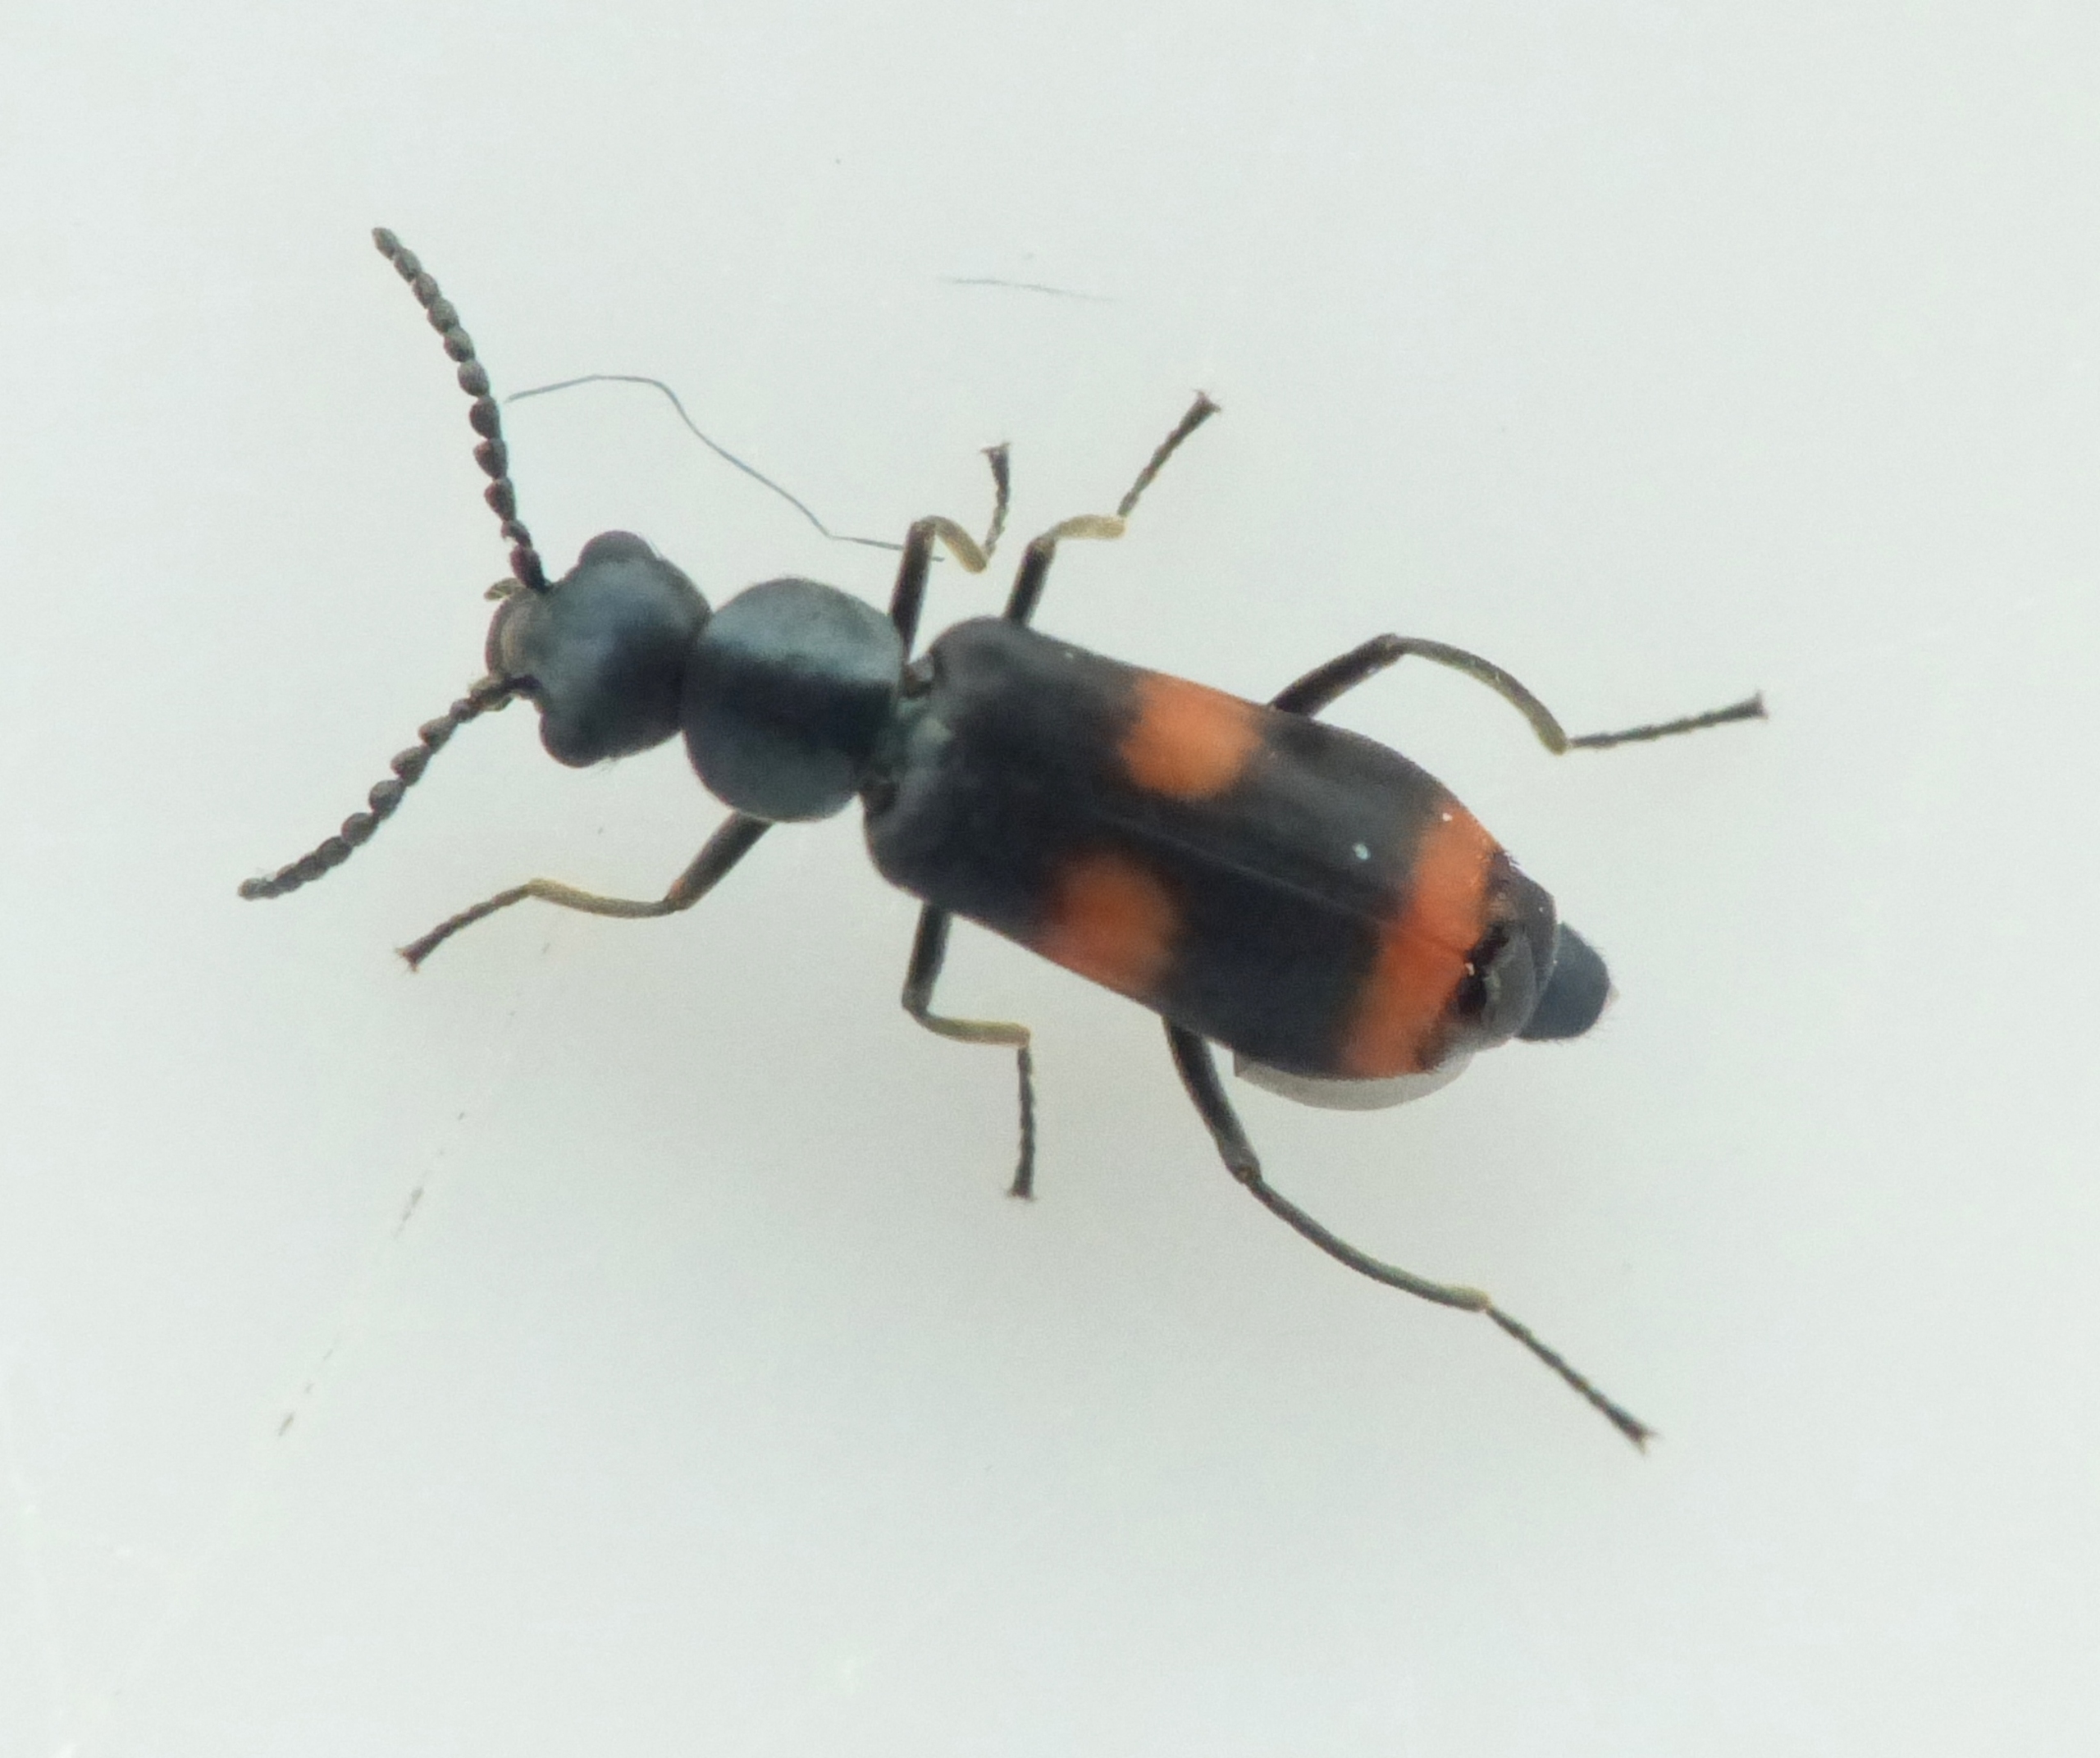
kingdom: Animalia
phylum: Arthropoda
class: Insecta
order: Coleoptera
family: Melyridae
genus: Anthocomus
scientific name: Anthocomus fasciatus
